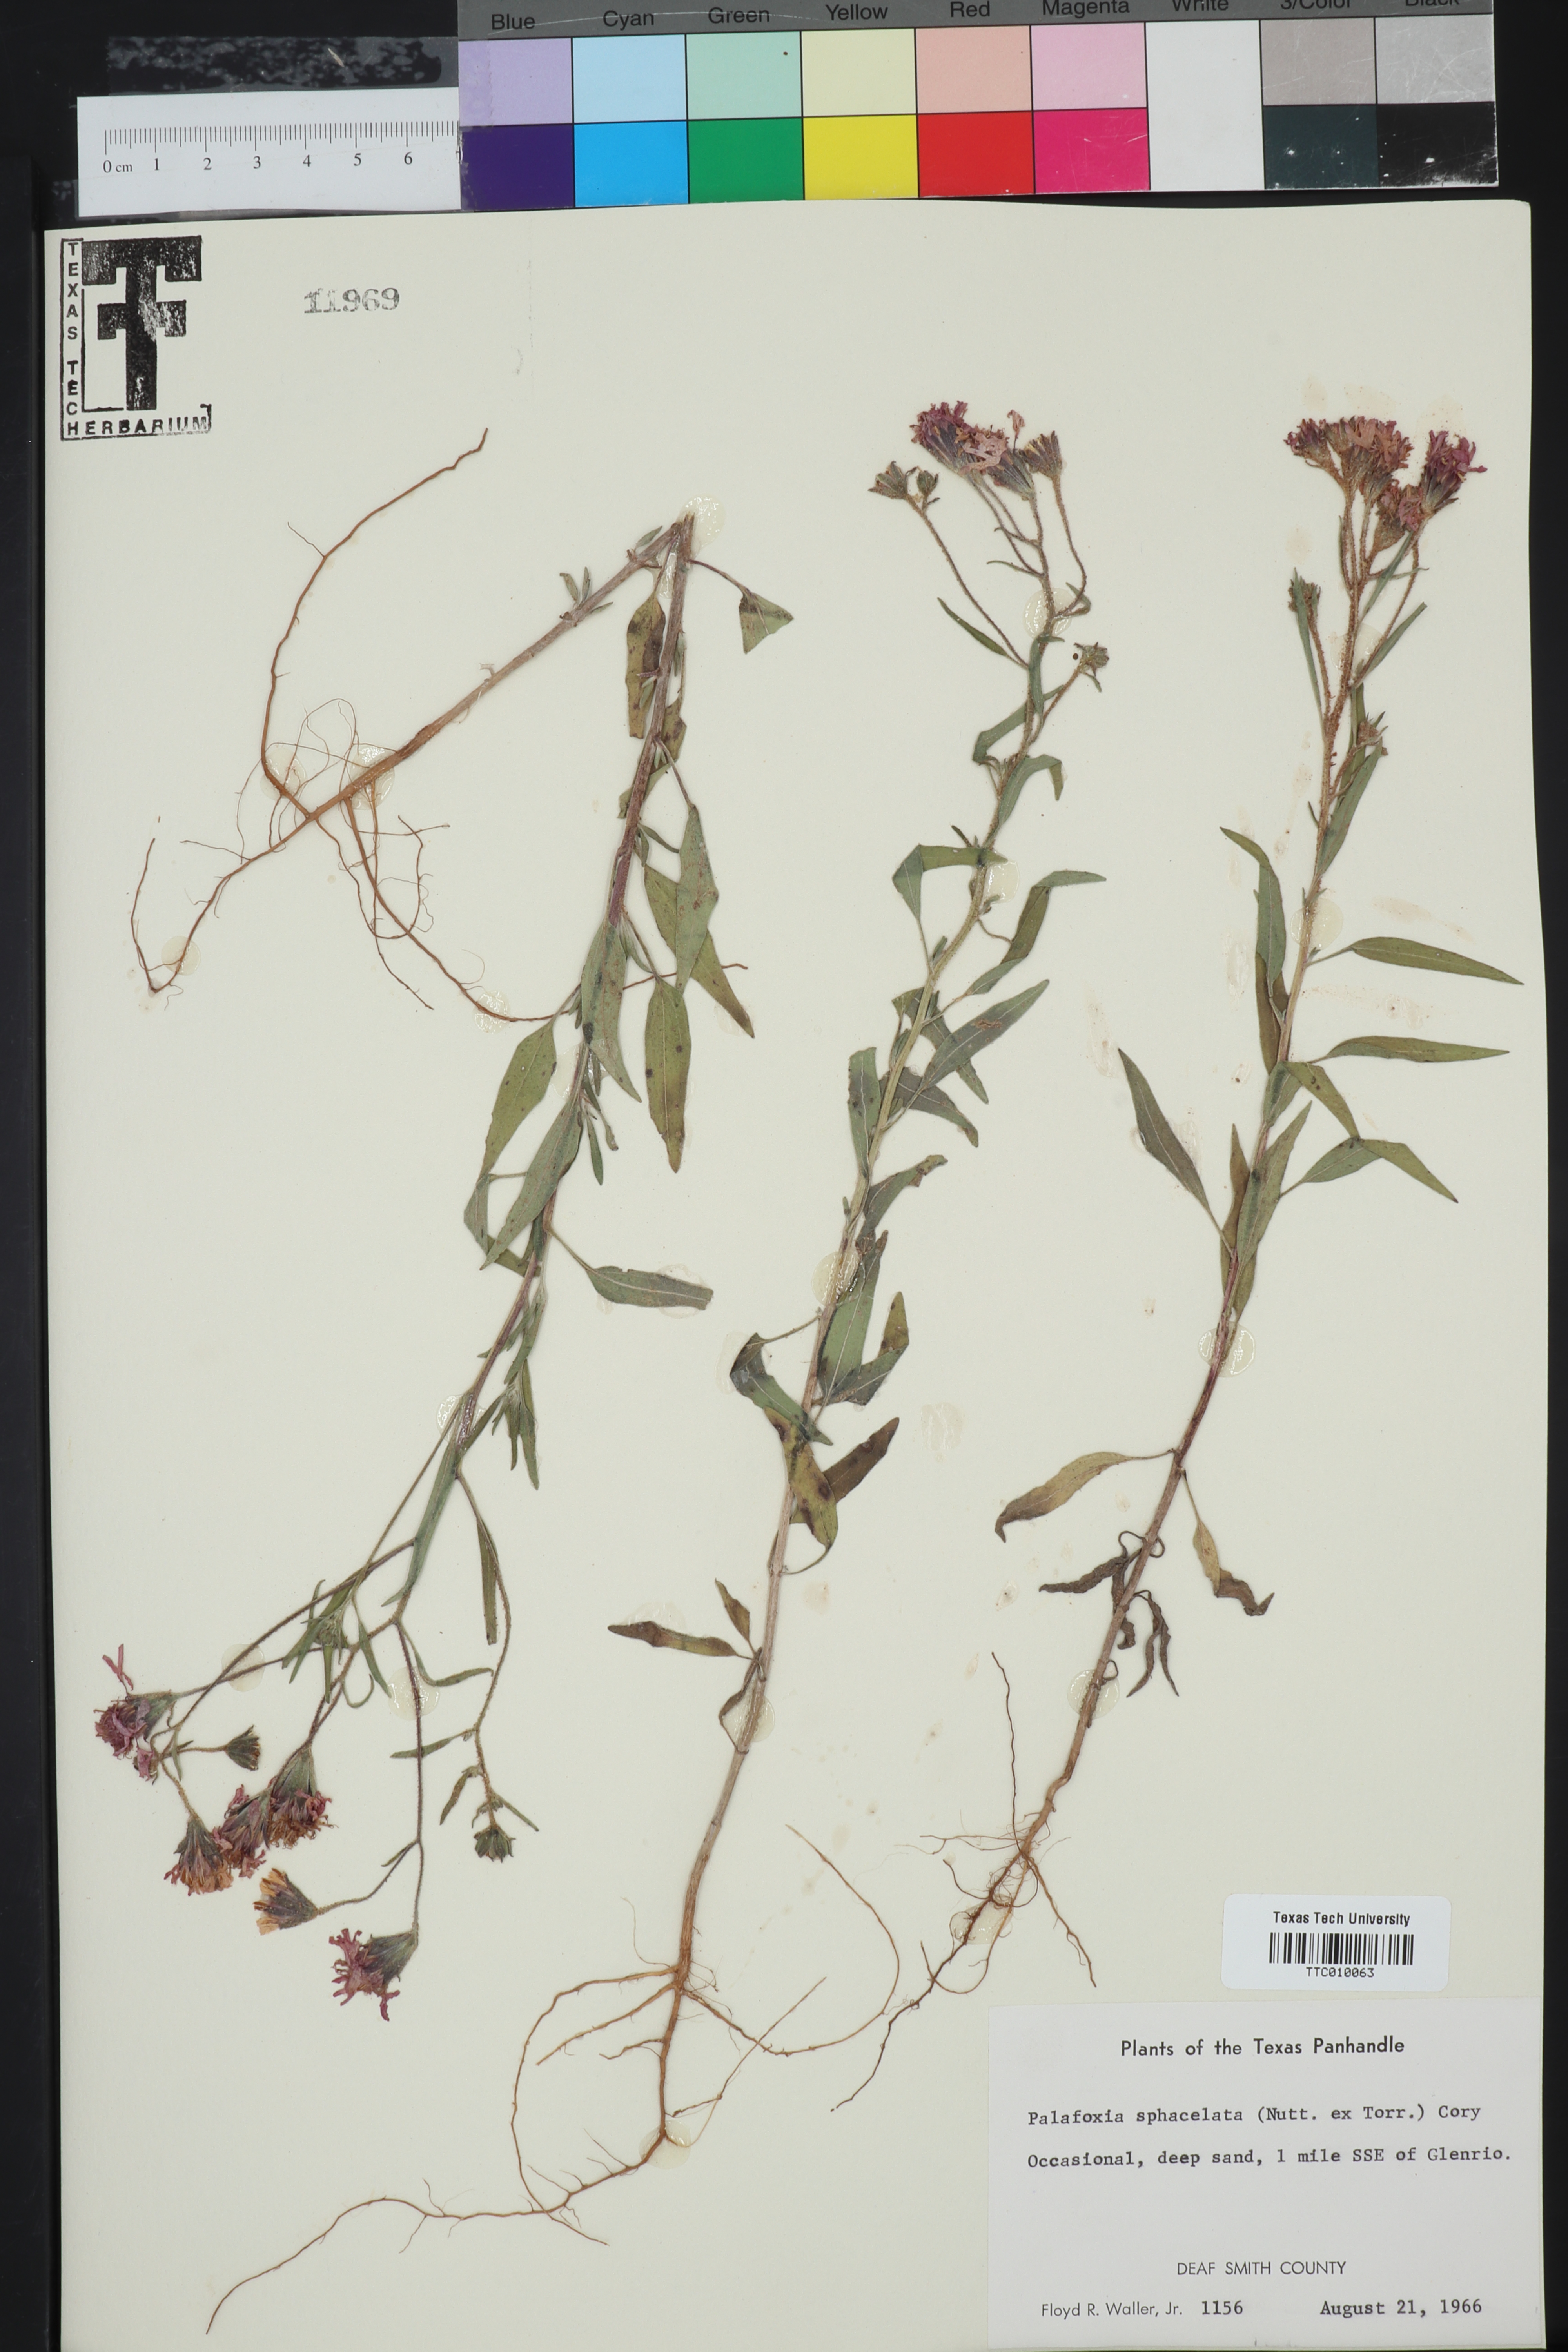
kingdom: Plantae
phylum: Tracheophyta
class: Magnoliopsida
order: Asterales
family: Asteraceae
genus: Palafoxia
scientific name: Palafoxia sphacelata
